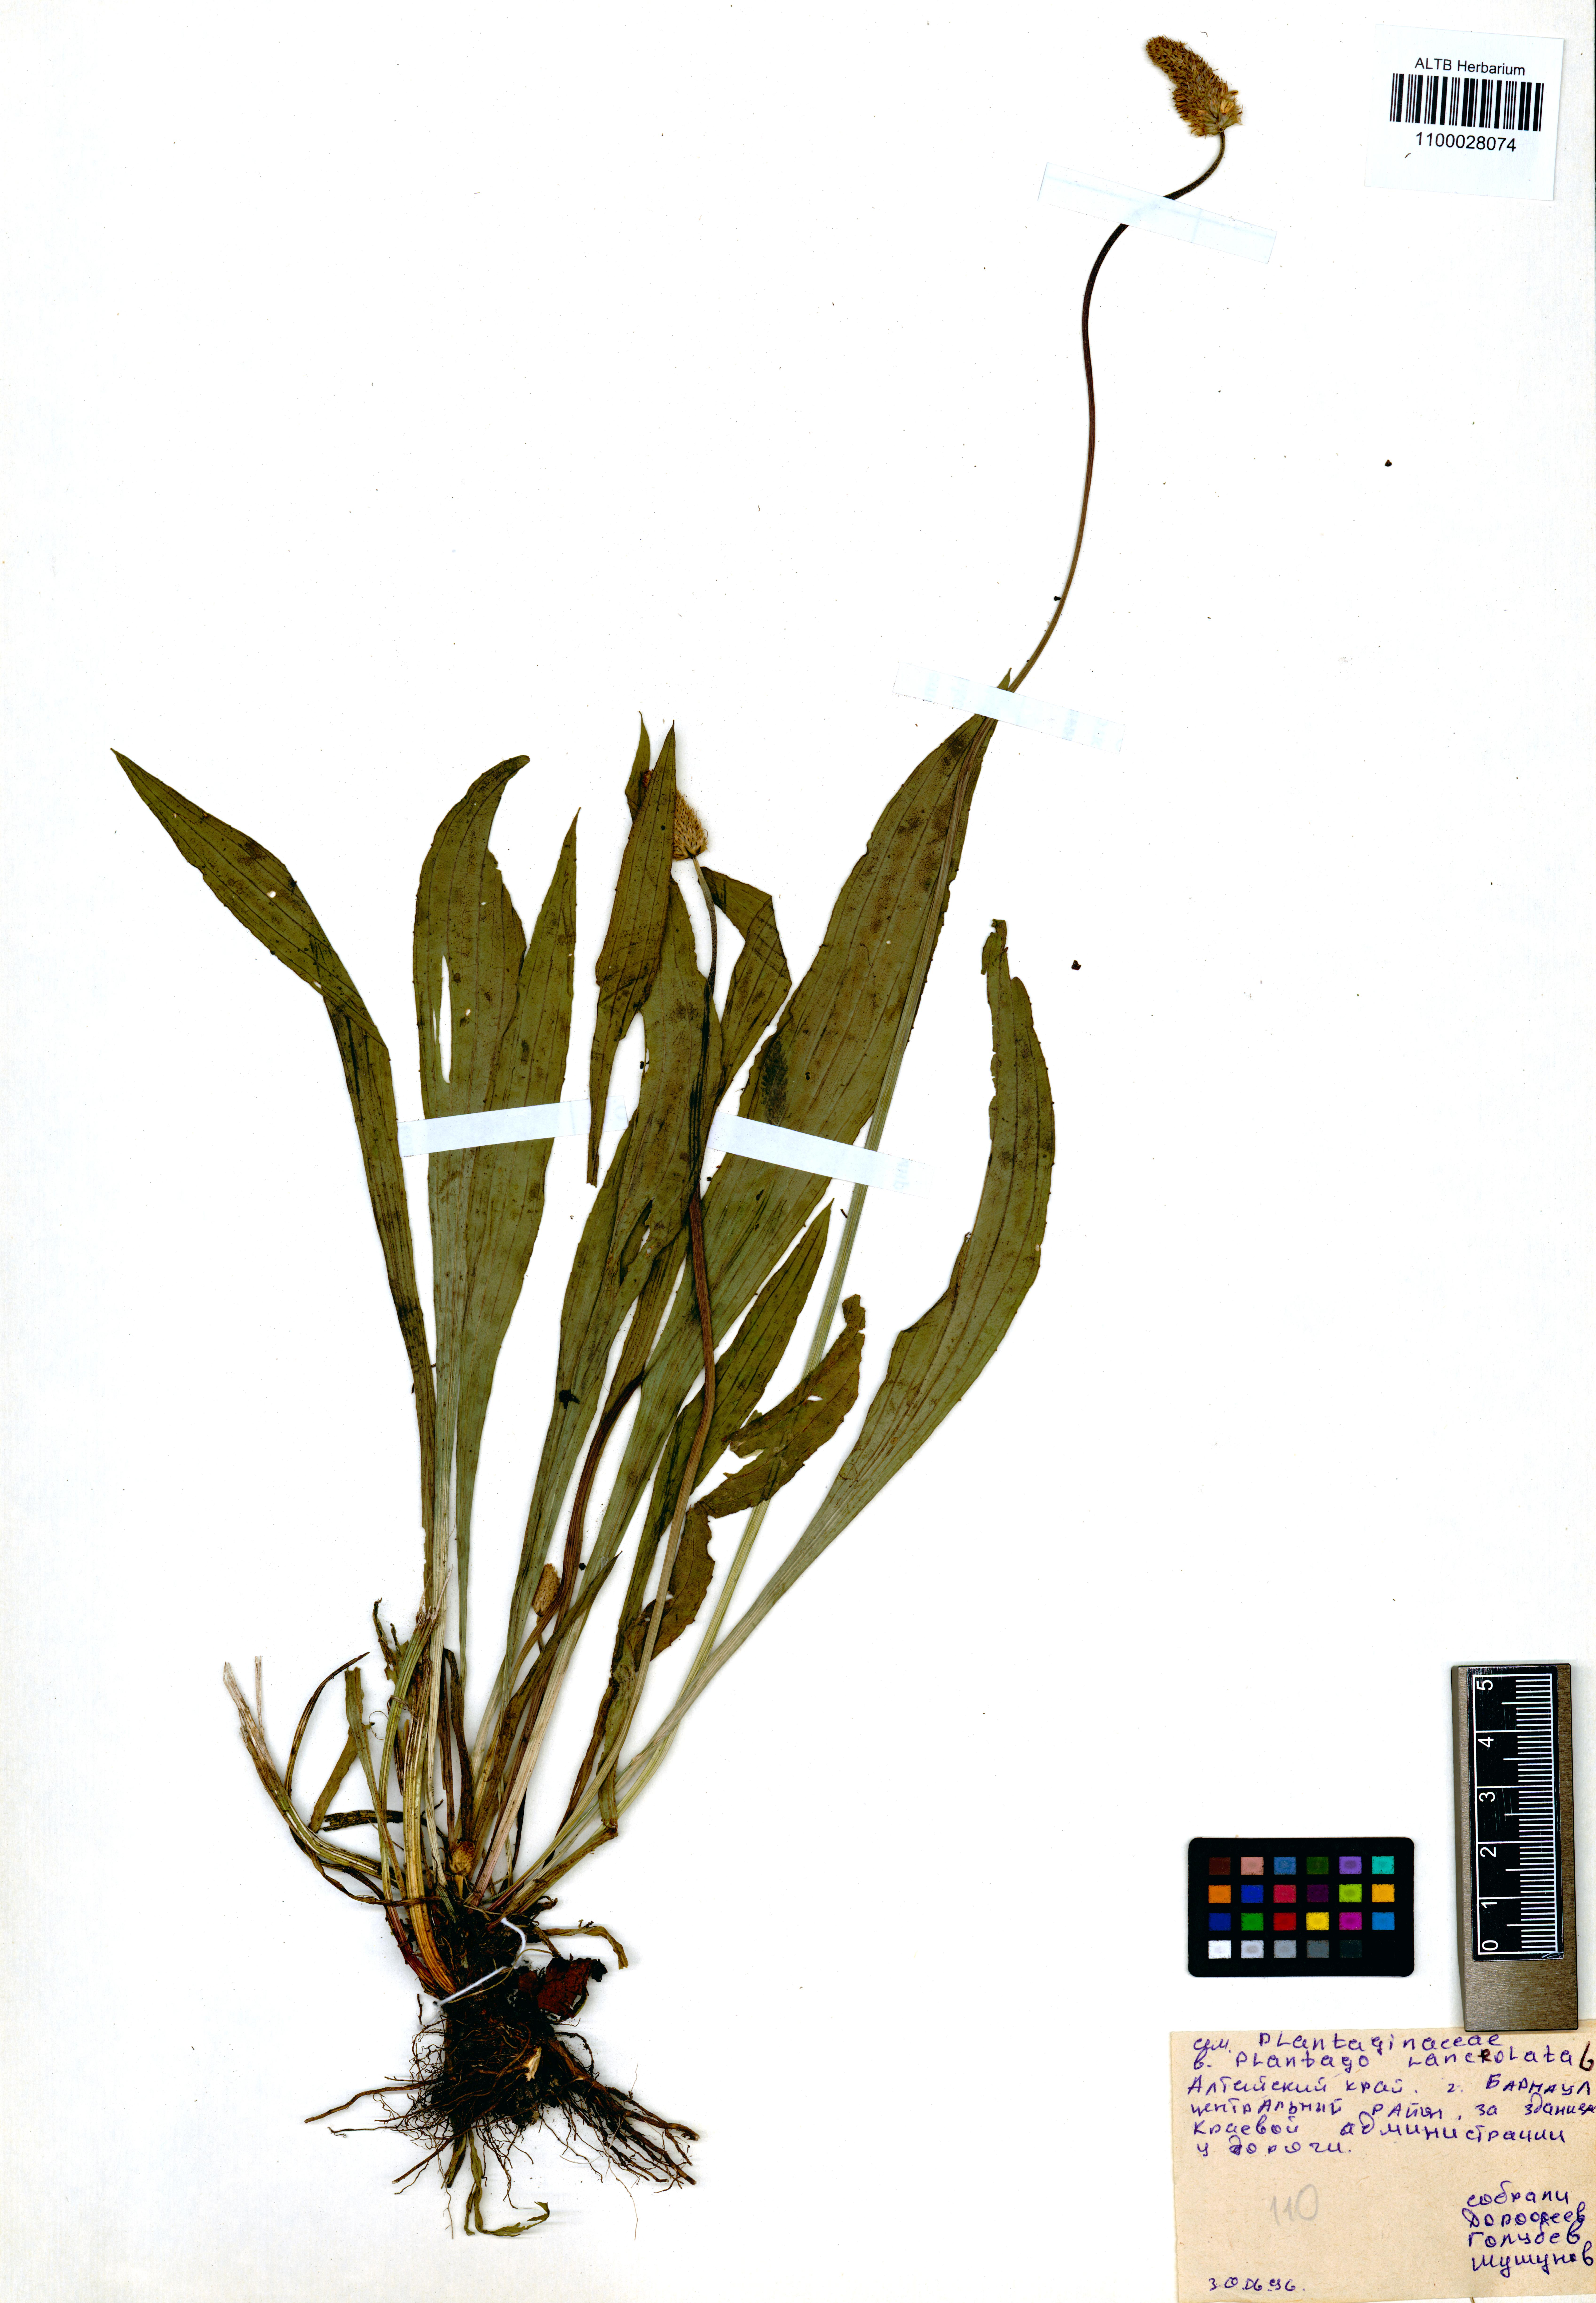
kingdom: Plantae
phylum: Tracheophyta
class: Magnoliopsida
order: Lamiales
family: Plantaginaceae
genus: Plantago
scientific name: Plantago lanceolata
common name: Ribwort plantain
